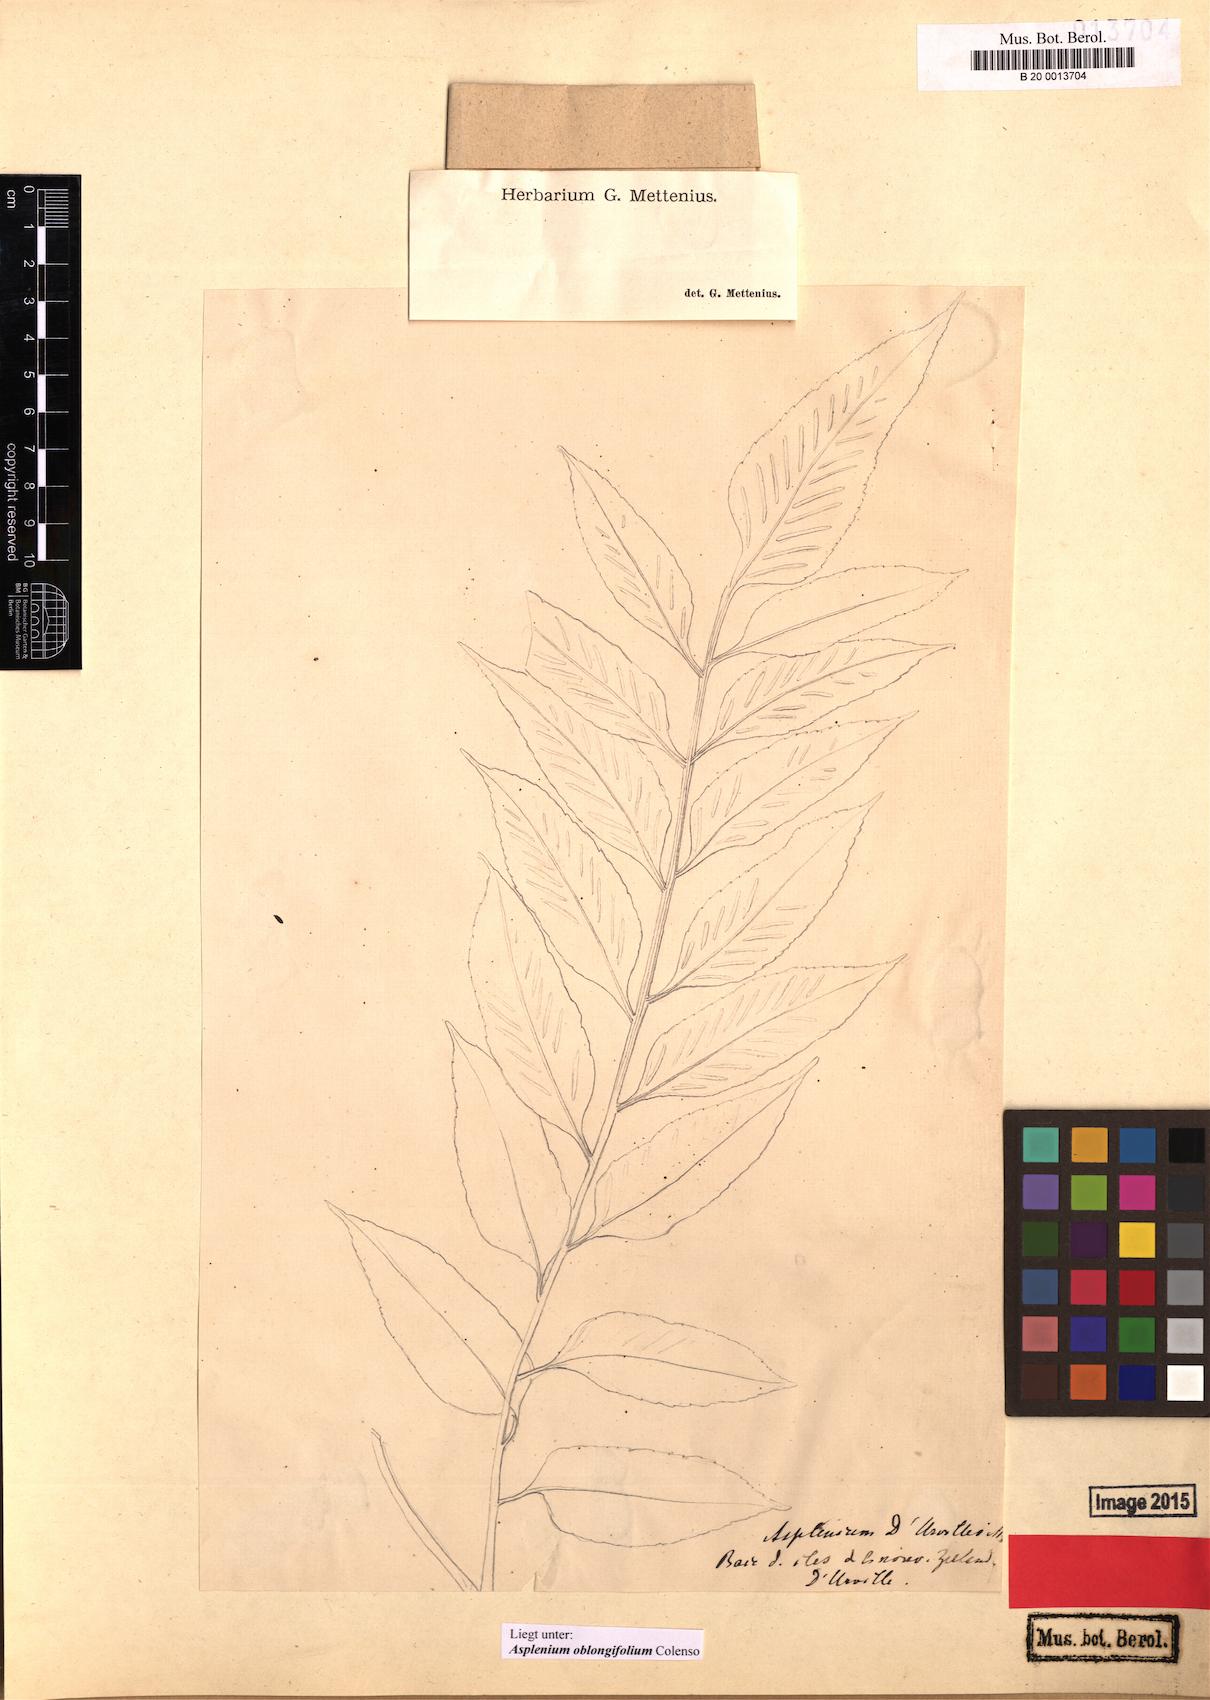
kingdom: Plantae
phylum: Tracheophyta
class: Polypodiopsida
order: Polypodiales
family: Aspleniaceae
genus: Asplenium
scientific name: Asplenium oblongifolium
